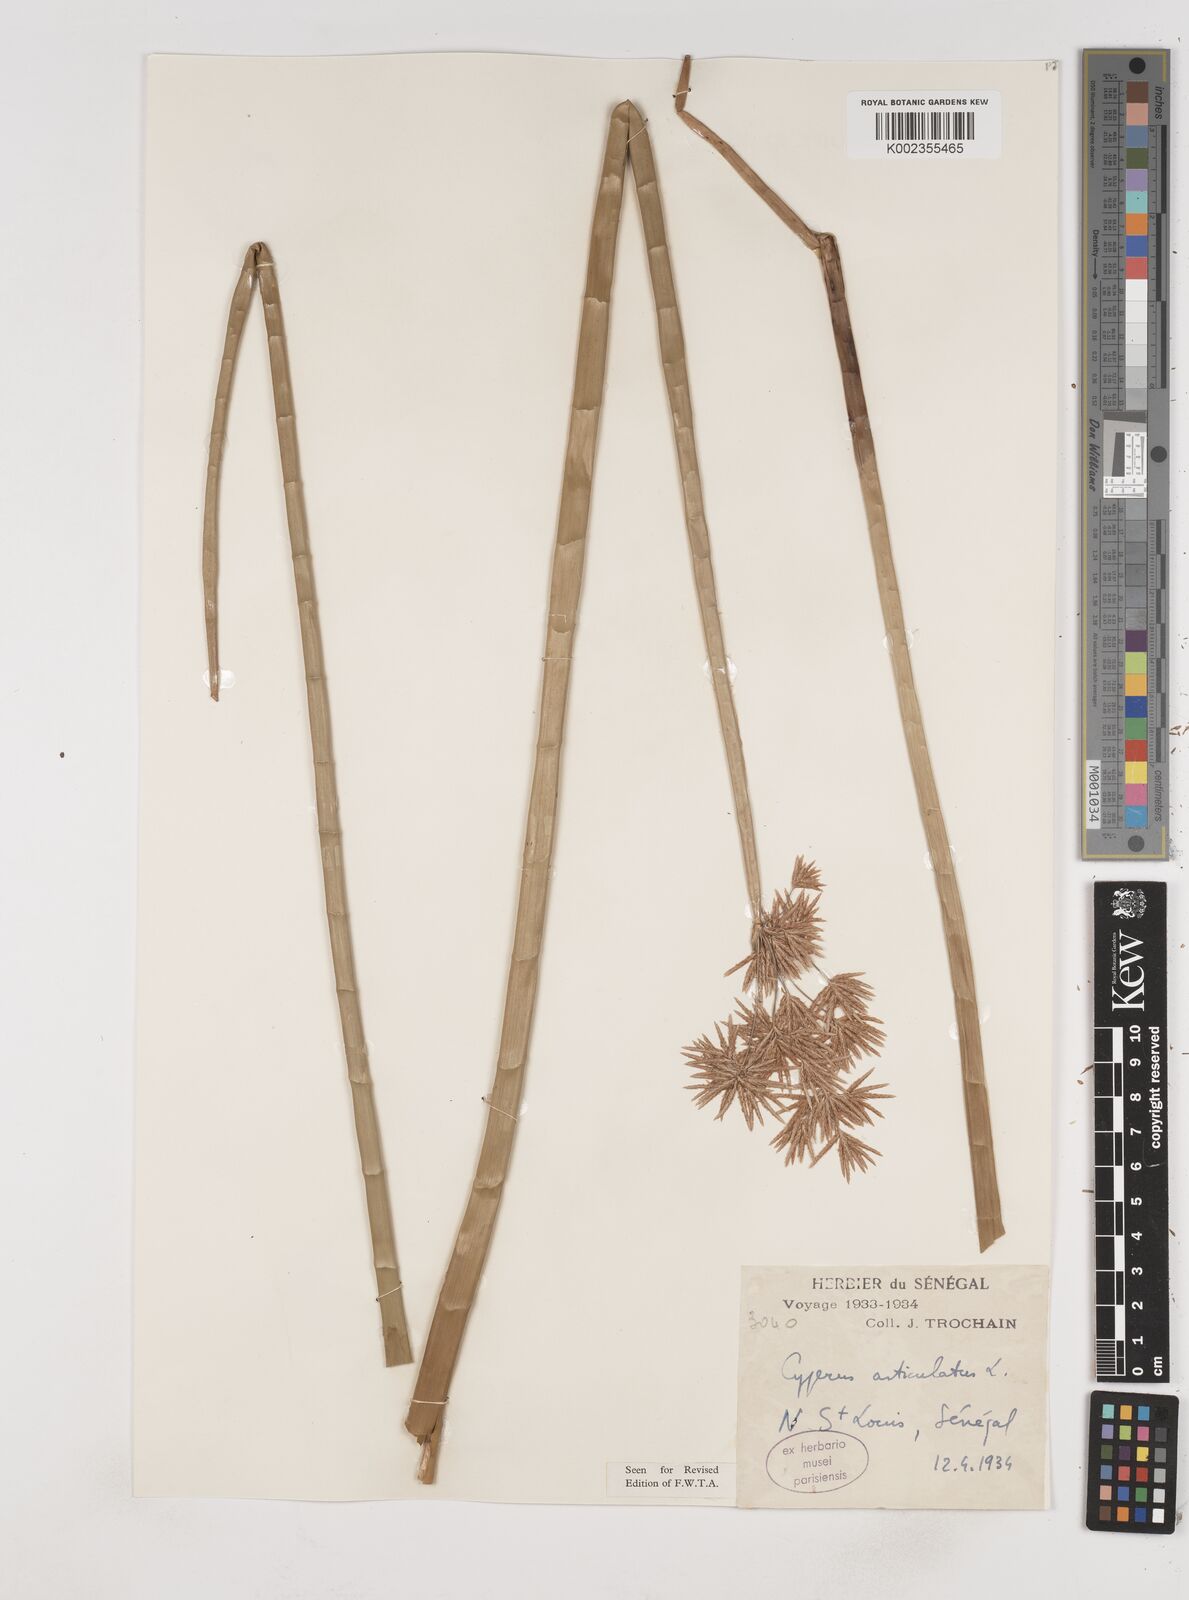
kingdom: Plantae
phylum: Tracheophyta
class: Liliopsida
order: Poales
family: Cyperaceae
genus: Cyperus
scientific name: Cyperus articulatus
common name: Jointed flatsedge
